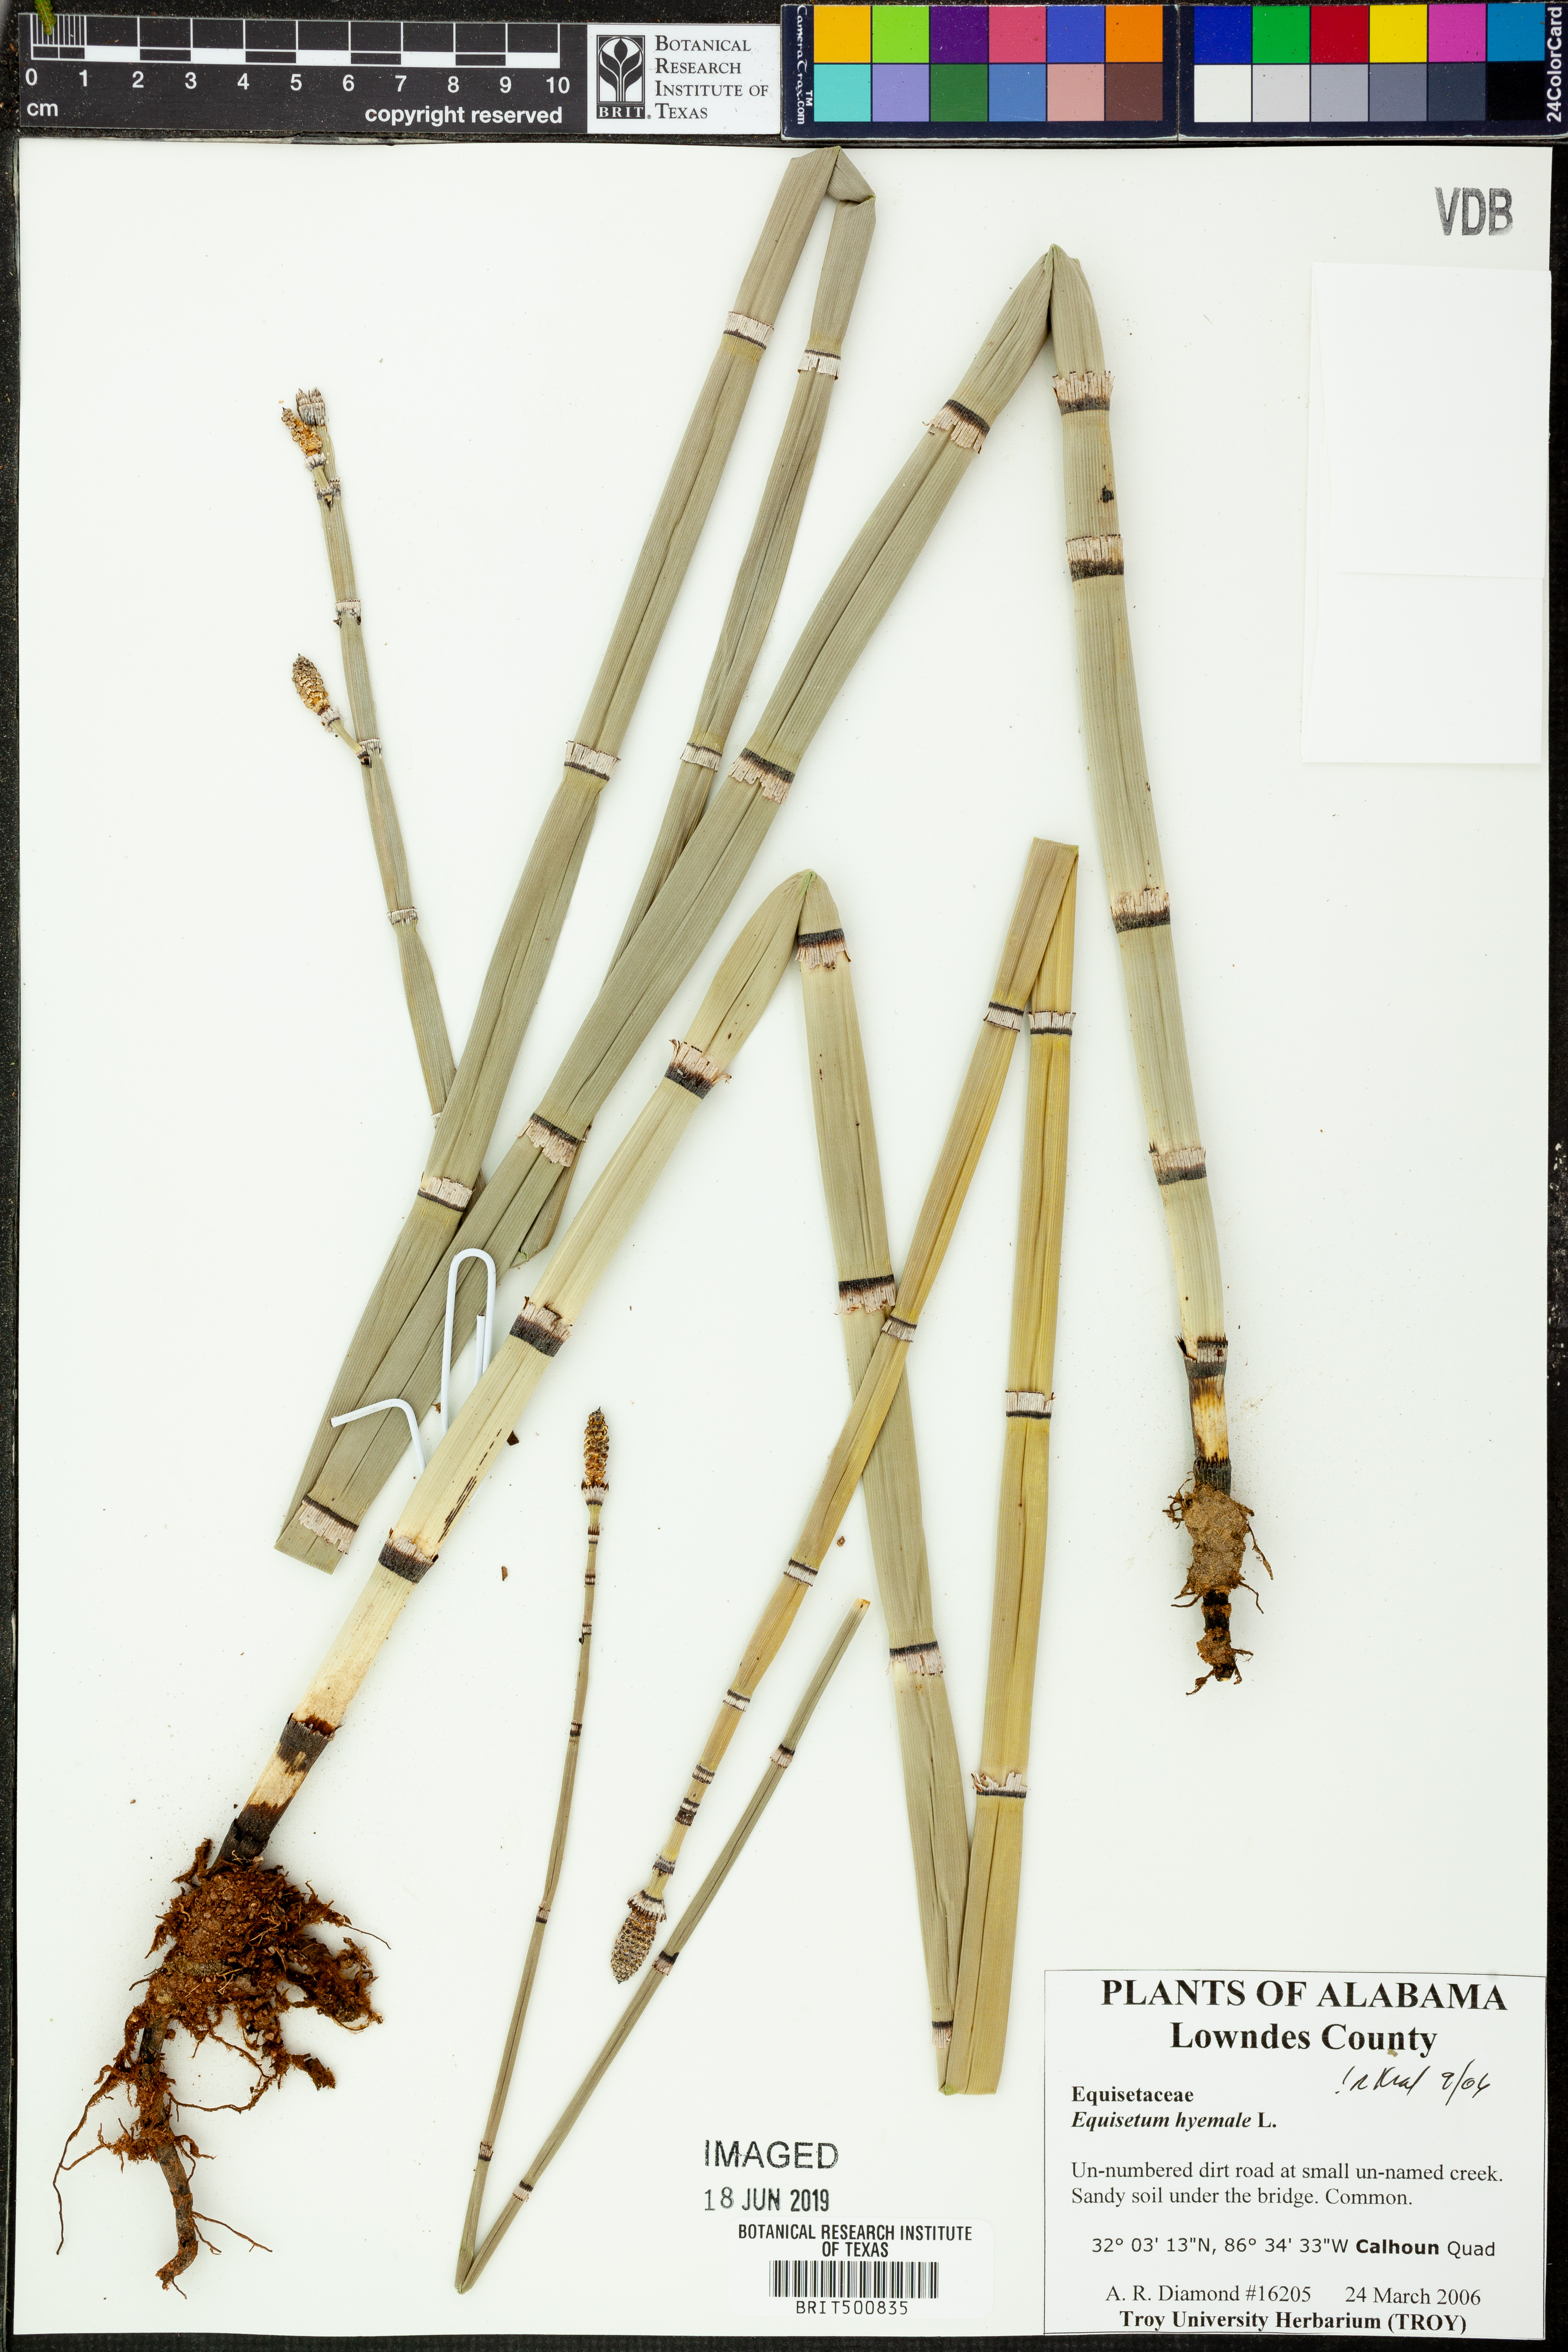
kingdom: Plantae
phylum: Tracheophyta
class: Polypodiopsida
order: Equisetales
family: Equisetaceae
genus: Equisetum
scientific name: Equisetum hyemale
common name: Rough horsetail
